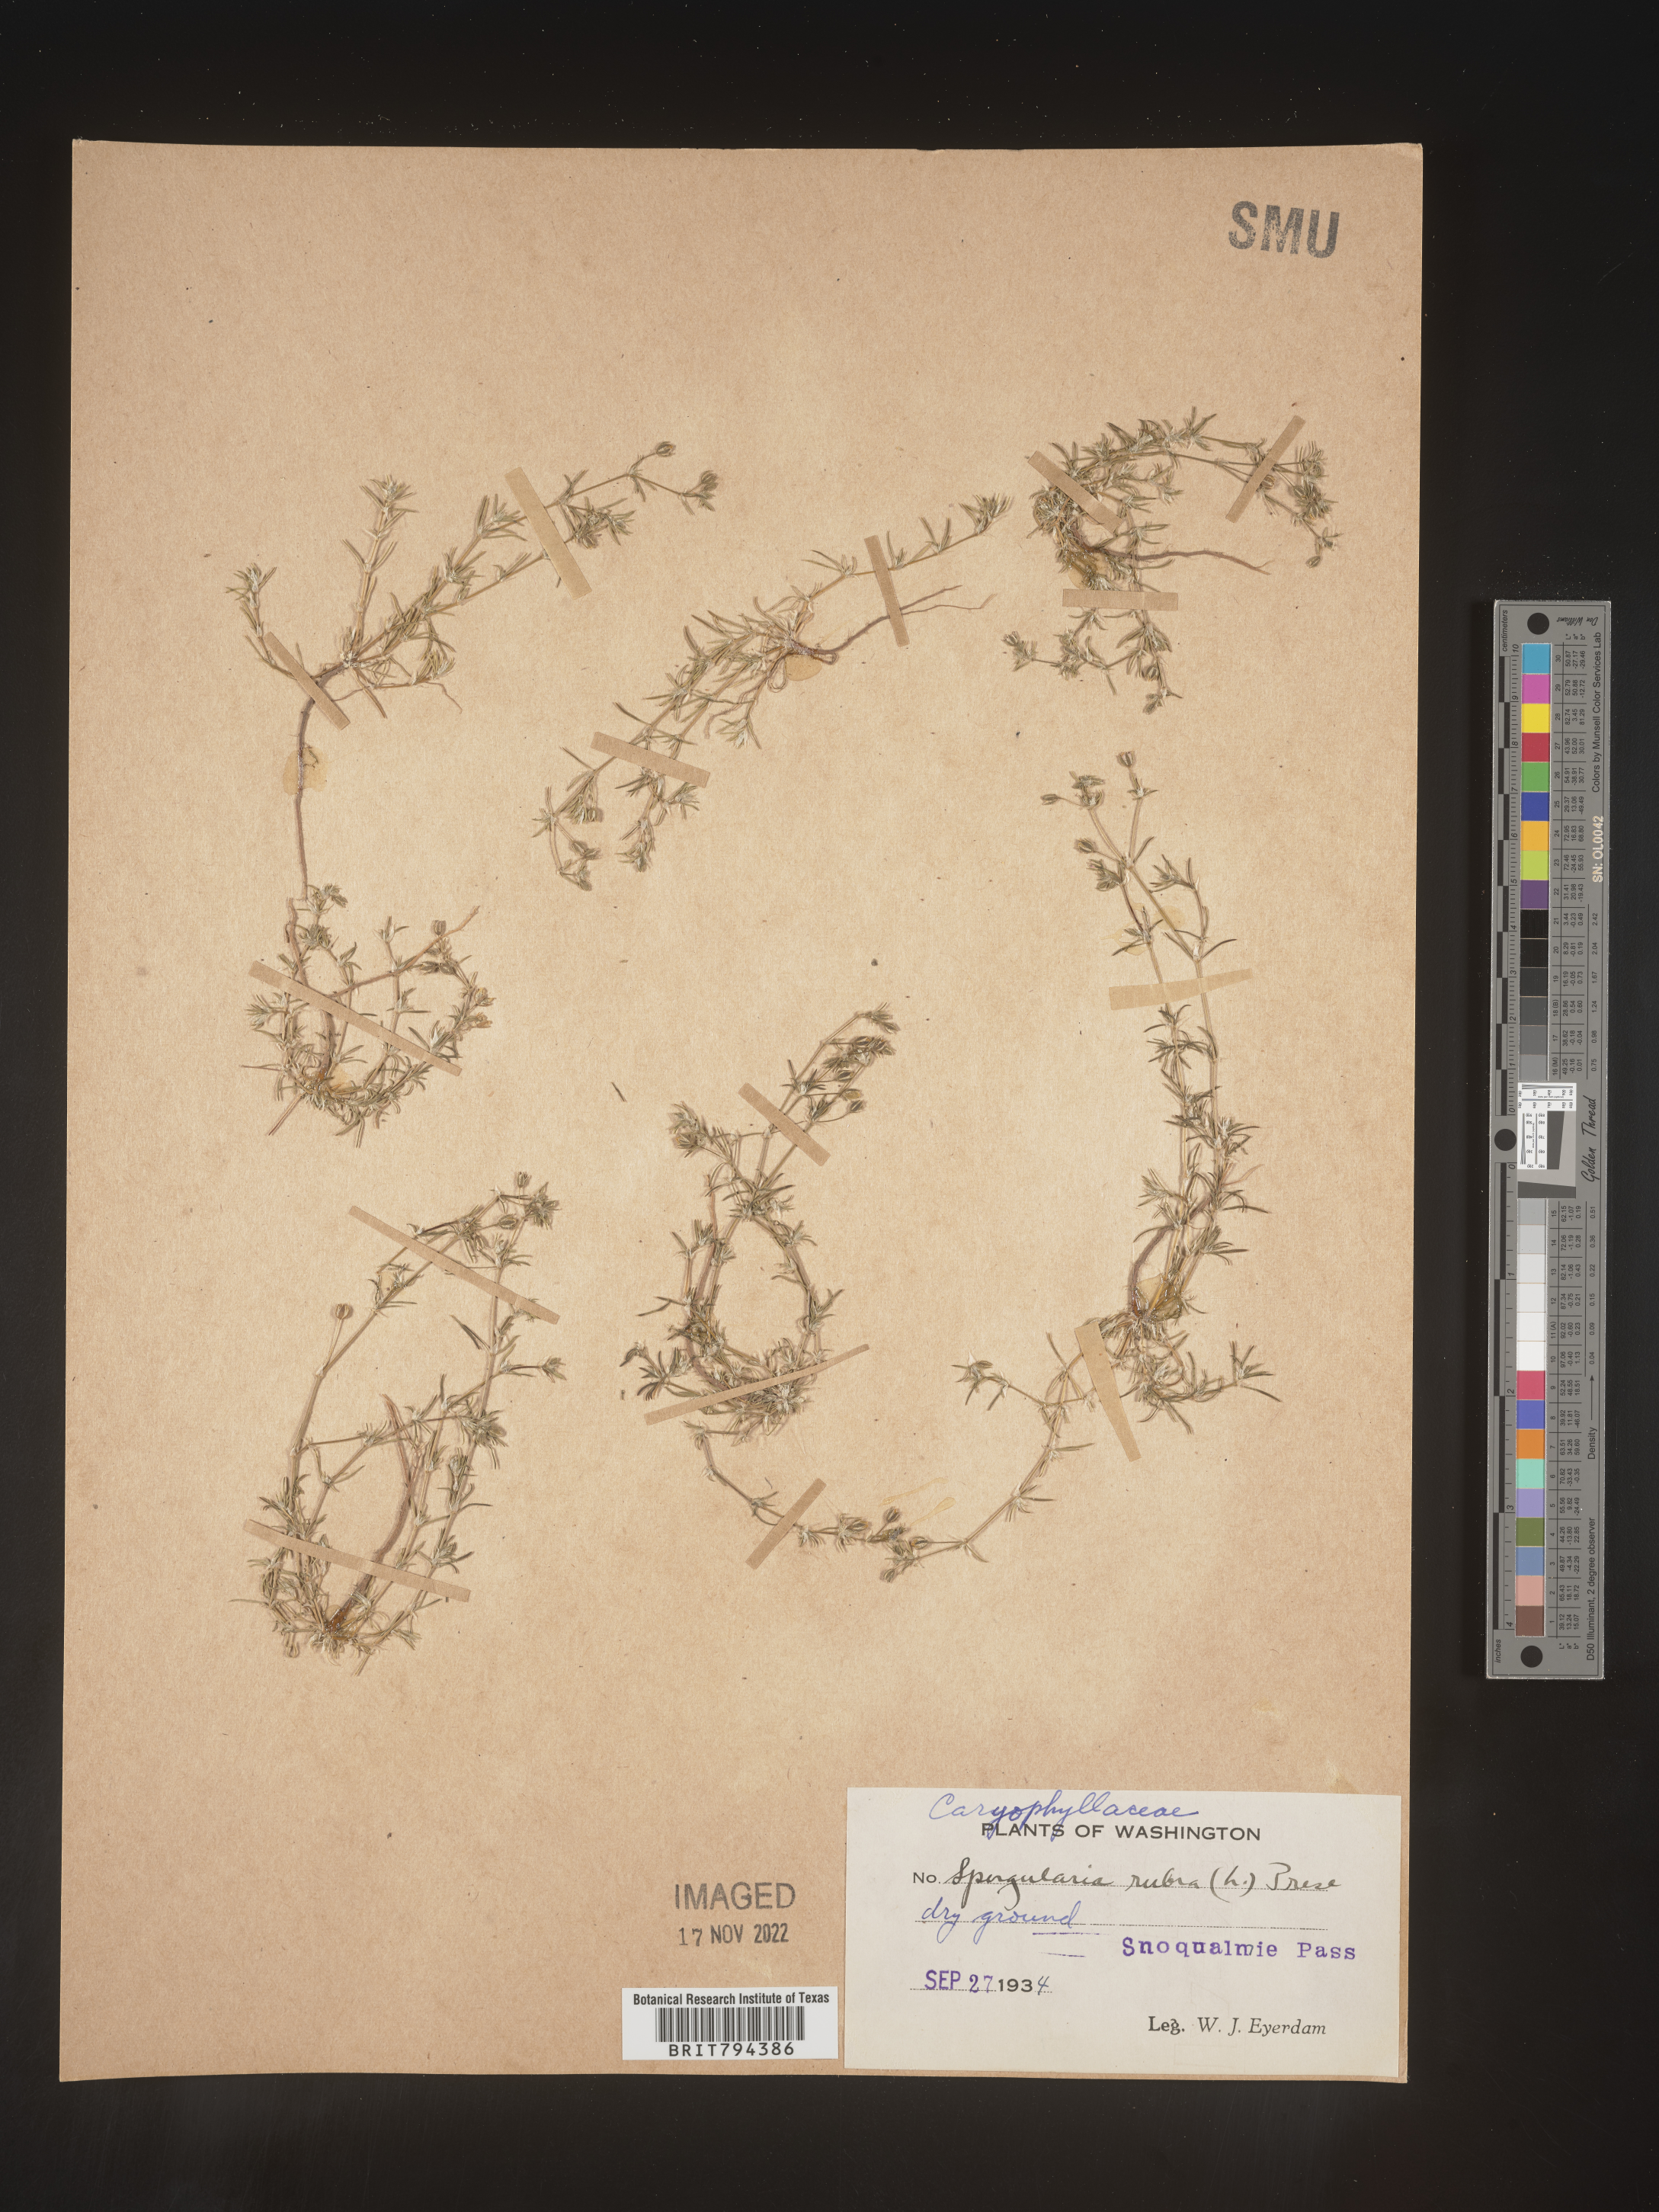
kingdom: Plantae
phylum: Tracheophyta
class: Magnoliopsida
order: Caryophyllales
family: Caryophyllaceae
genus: Spergularia
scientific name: Spergularia rubra
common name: Red sand-spurrey
